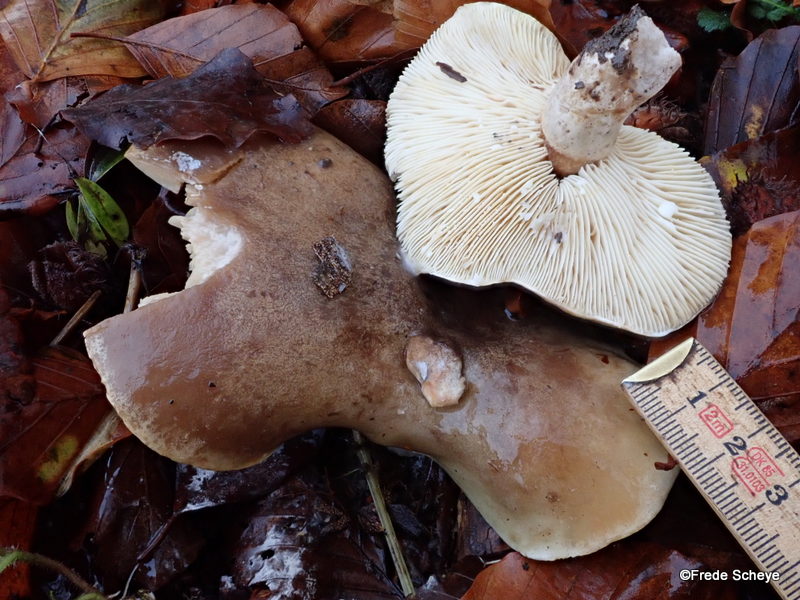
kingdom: Fungi
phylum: Basidiomycota
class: Agaricomycetes
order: Russulales
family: Russulaceae
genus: Lactarius
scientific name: Lactarius fluens
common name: lysrandet mælkehat
